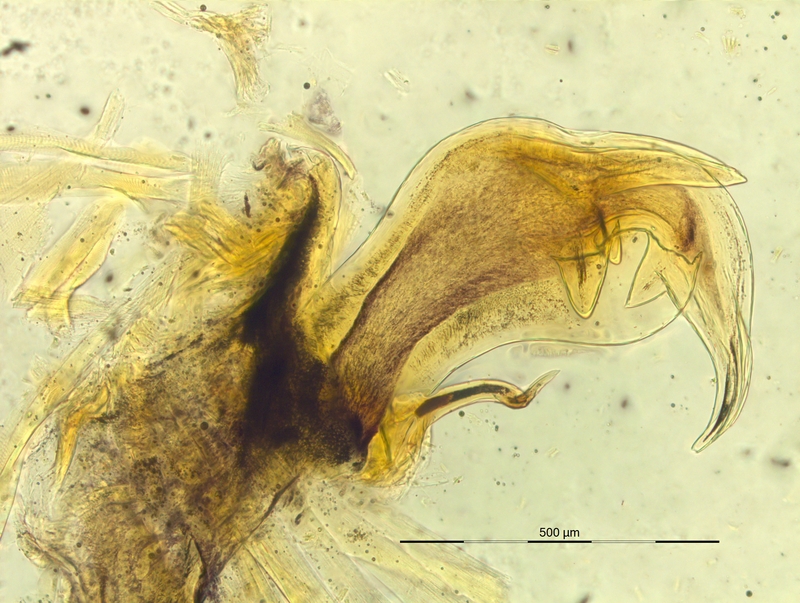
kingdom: Animalia
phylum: Arthropoda
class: Diplopoda
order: Chordeumatida
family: Craspedosomatidae
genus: Bergamosoma
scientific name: Bergamosoma canestrinii
